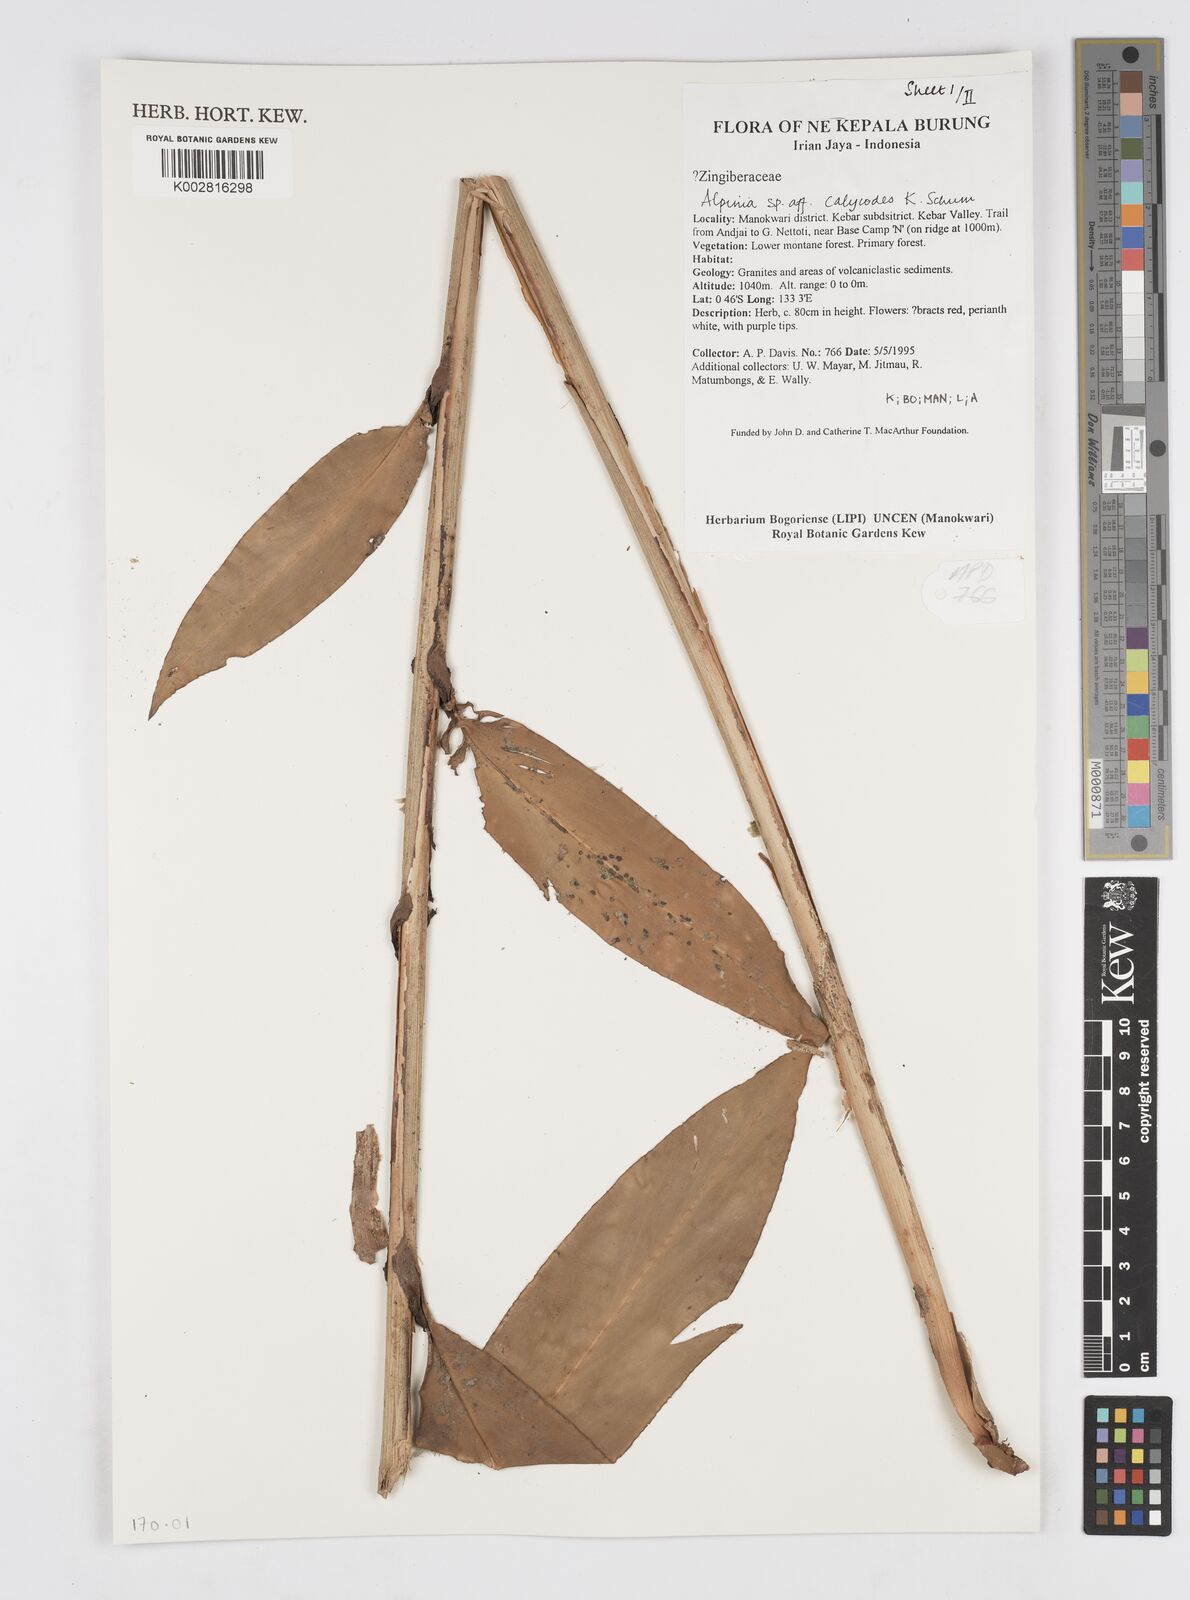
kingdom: Plantae
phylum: Tracheophyta
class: Liliopsida
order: Zingiberales
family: Zingiberaceae
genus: Alpinia
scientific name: Alpinia calycodes
